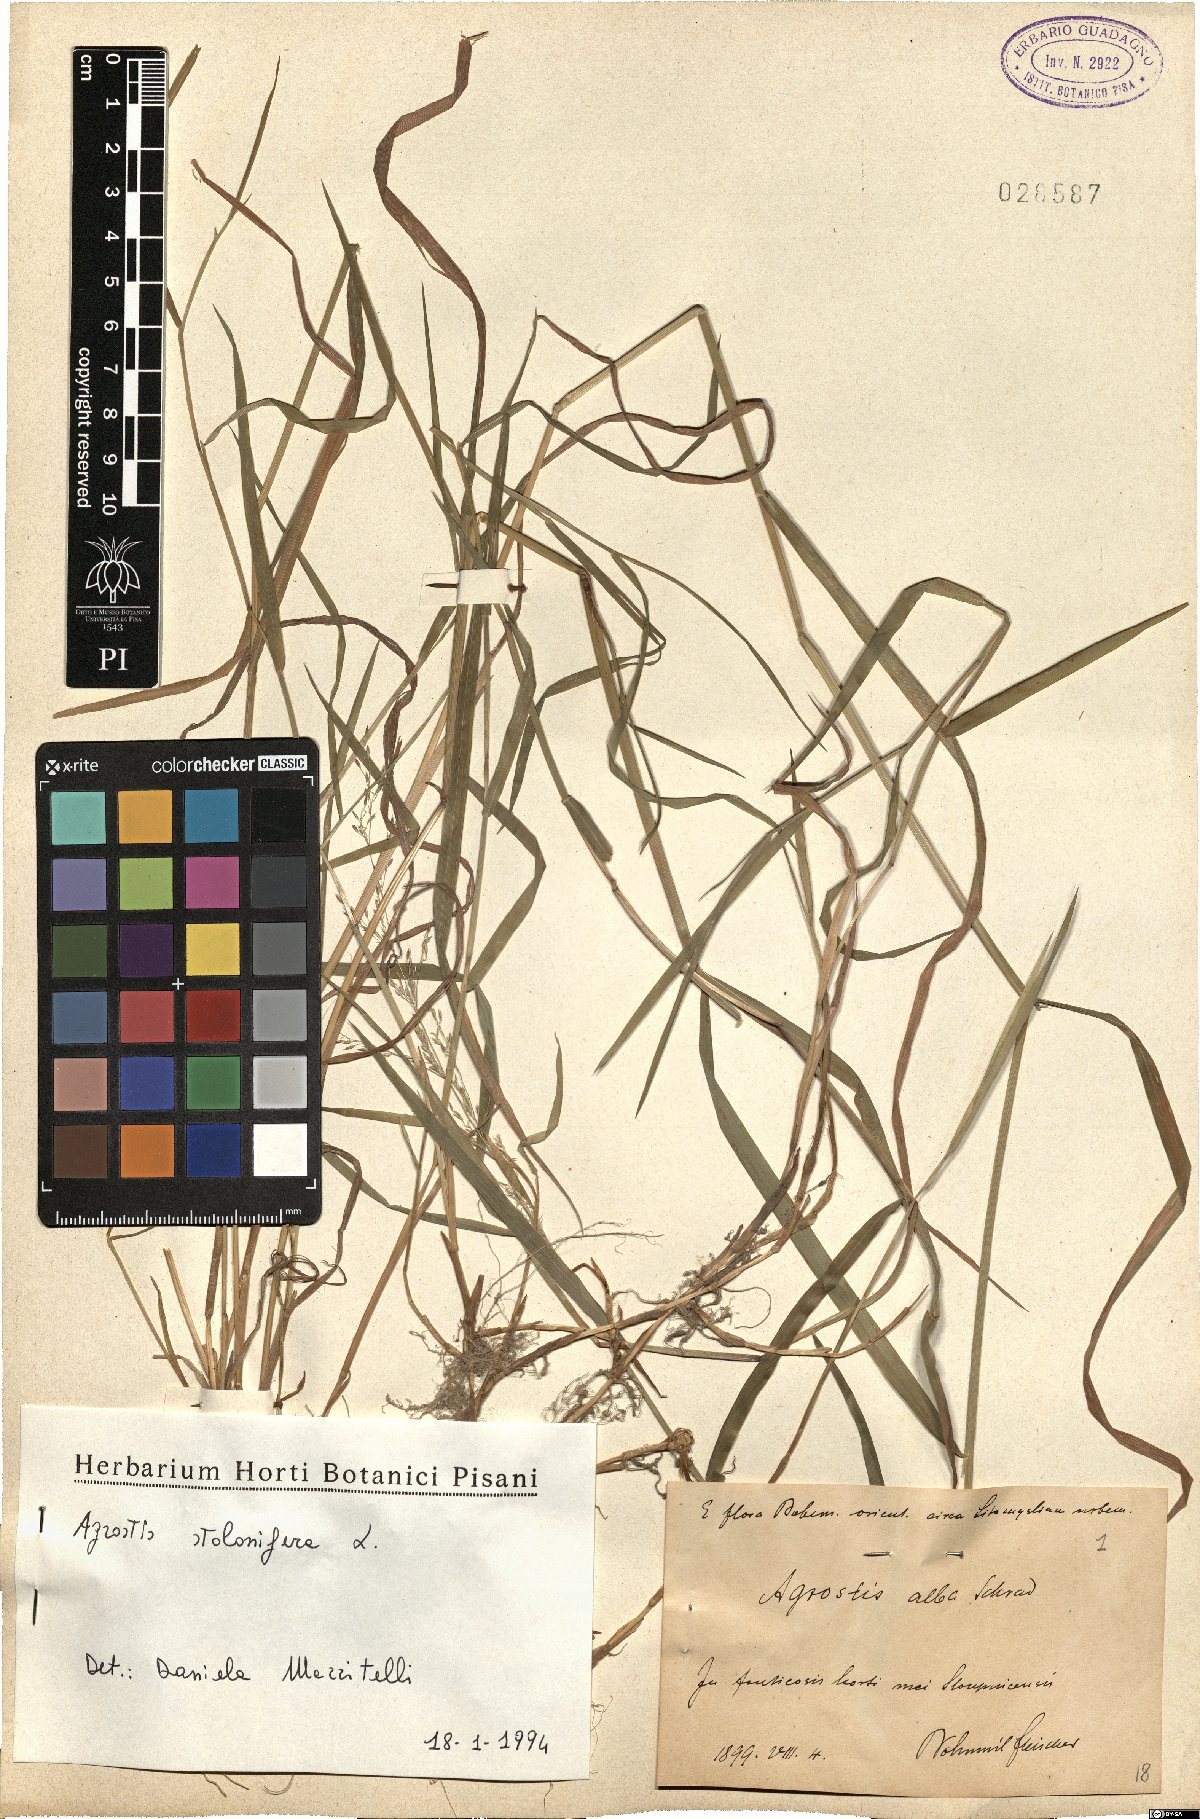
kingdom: Plantae
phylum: Tracheophyta
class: Liliopsida
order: Poales
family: Poaceae
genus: Agrostis
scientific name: Agrostis stolonifera
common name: Creeping bentgrass
